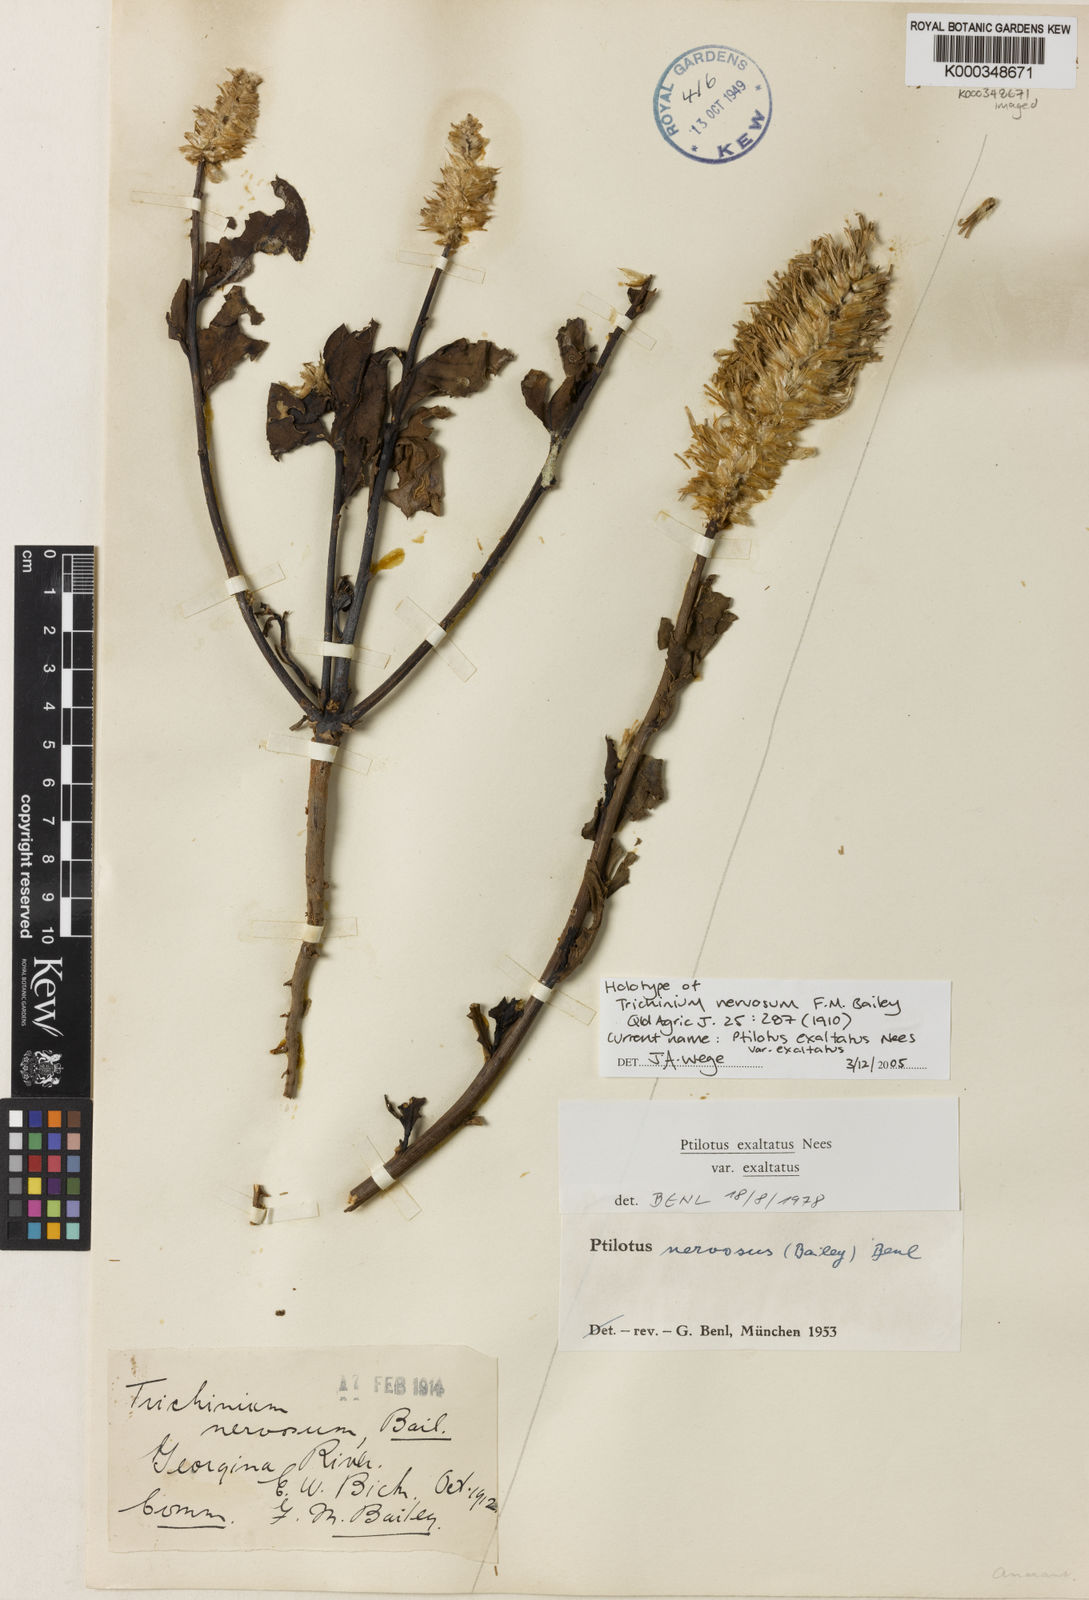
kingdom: Plantae
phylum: Tracheophyta
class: Magnoliopsida
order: Caryophyllales
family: Amaranthaceae
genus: Ptilotus
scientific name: Ptilotus exaltatus
